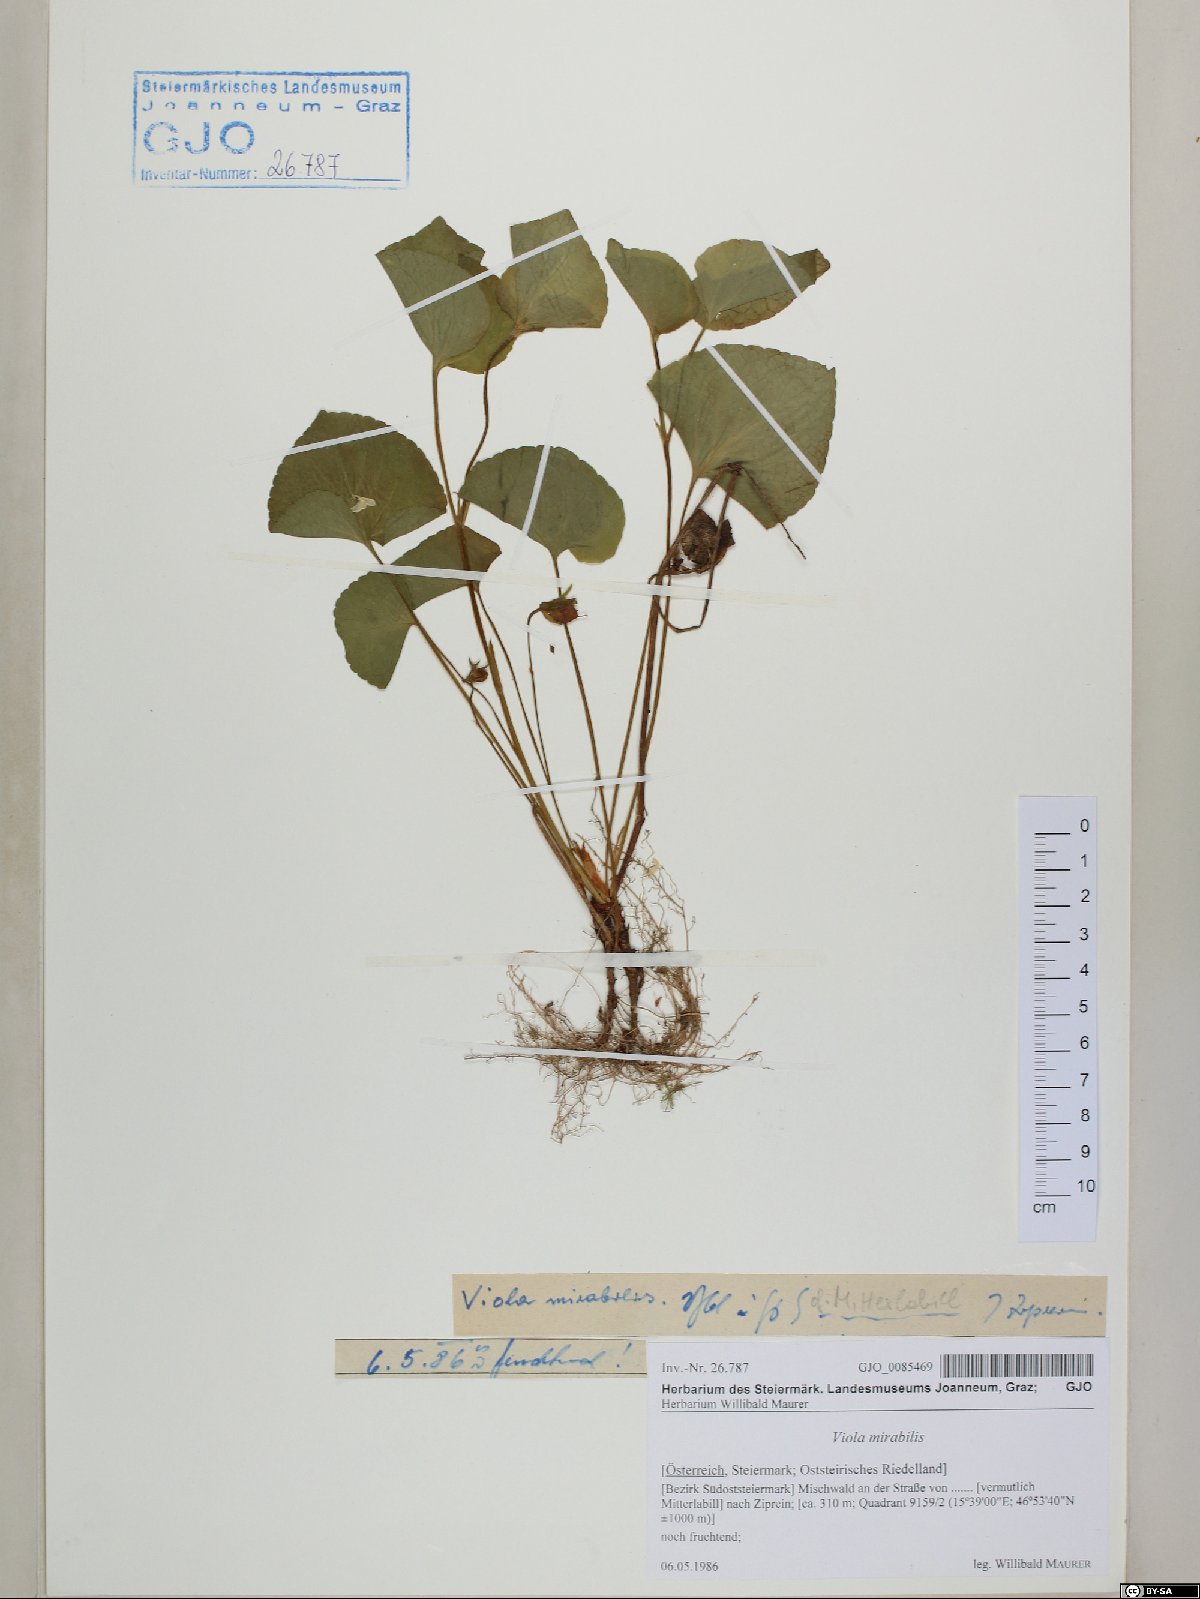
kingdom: Plantae
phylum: Tracheophyta
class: Magnoliopsida
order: Malpighiales
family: Violaceae
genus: Viola
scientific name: Viola mirabilis
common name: Wonder violet
